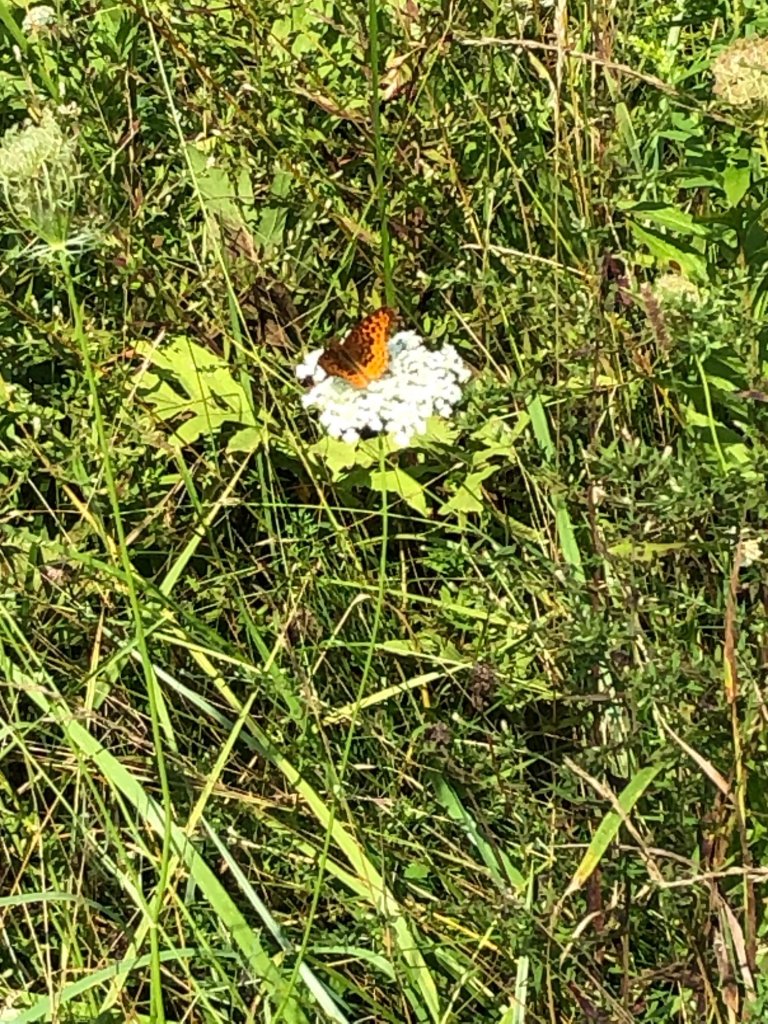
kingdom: Animalia
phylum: Arthropoda
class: Insecta
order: Lepidoptera
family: Nymphalidae
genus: Clossiana
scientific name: Clossiana toddi
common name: Meadow Fritillary
